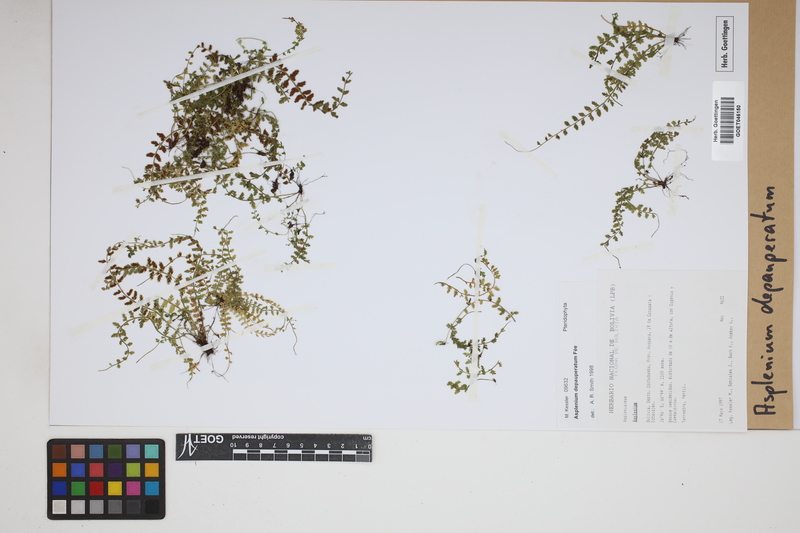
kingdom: Plantae
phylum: Tracheophyta
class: Polypodiopsida
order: Polypodiales
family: Aspleniaceae
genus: Asplenium
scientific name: Asplenium depauperatum
